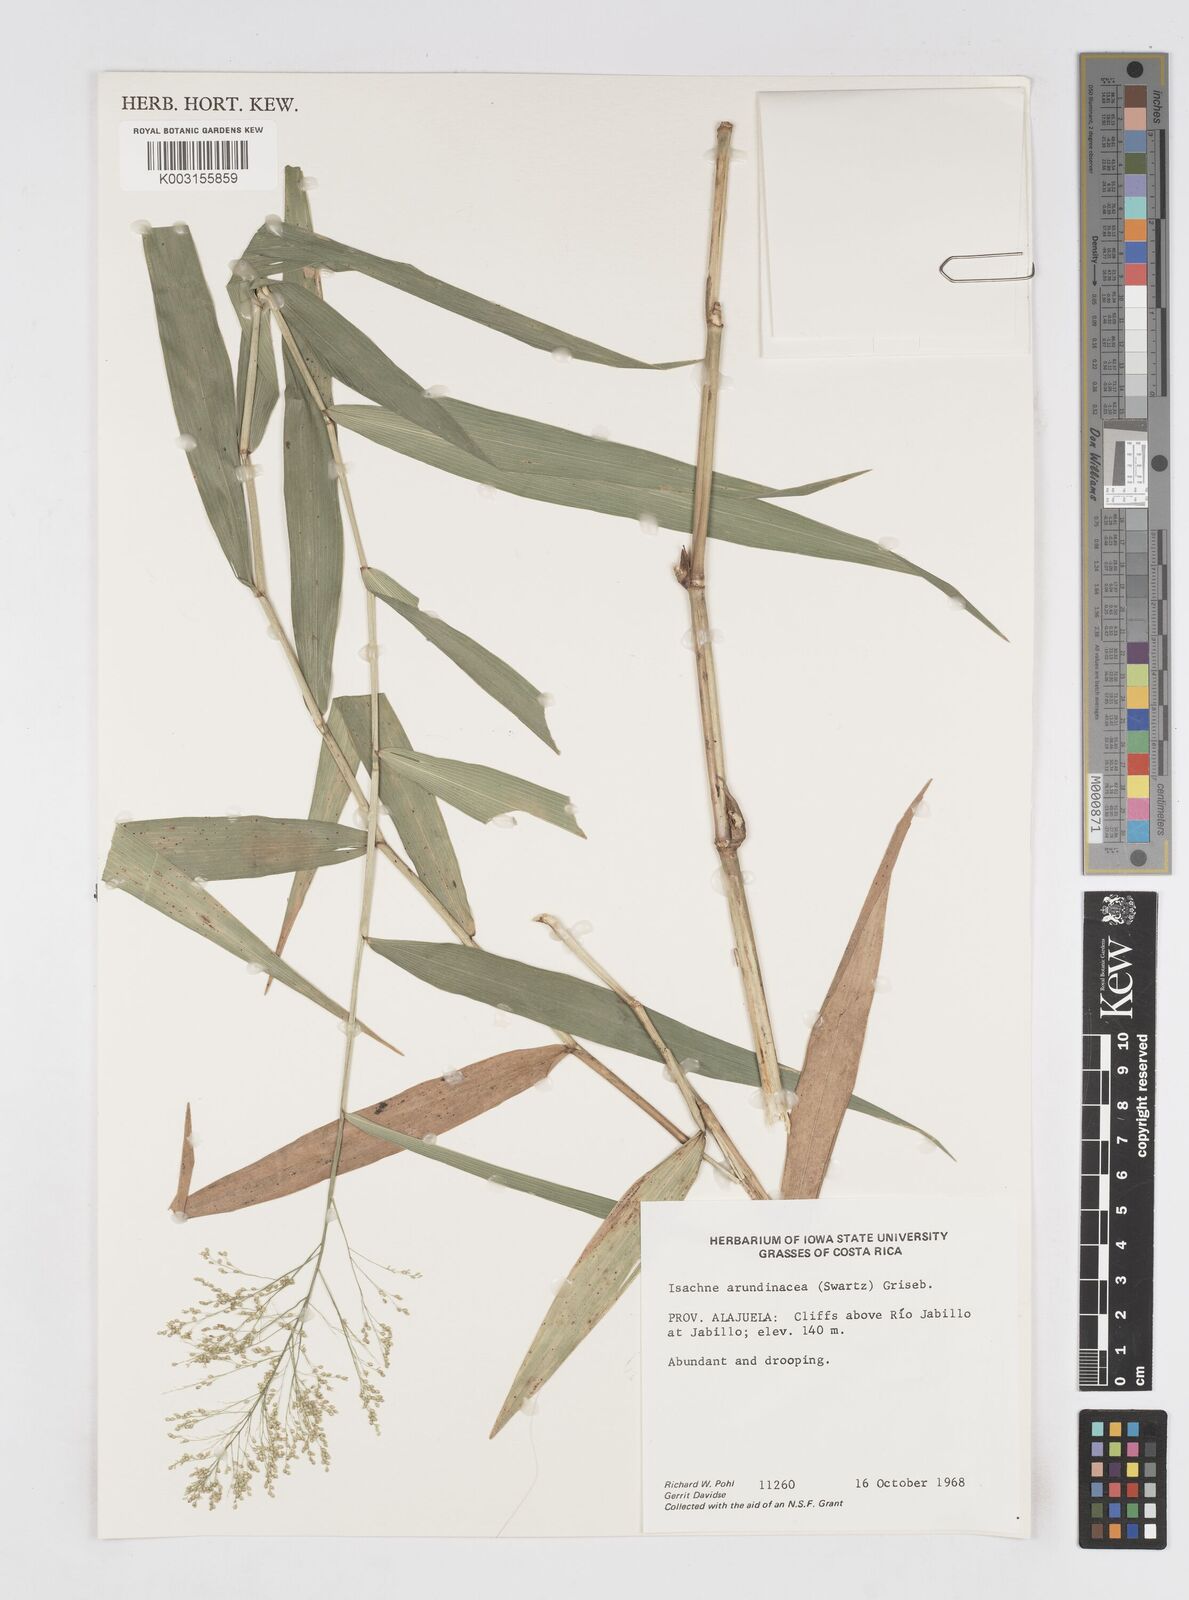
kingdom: Plantae
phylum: Tracheophyta
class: Liliopsida
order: Poales
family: Poaceae
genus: Isachne
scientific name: Isachne arundinacea
